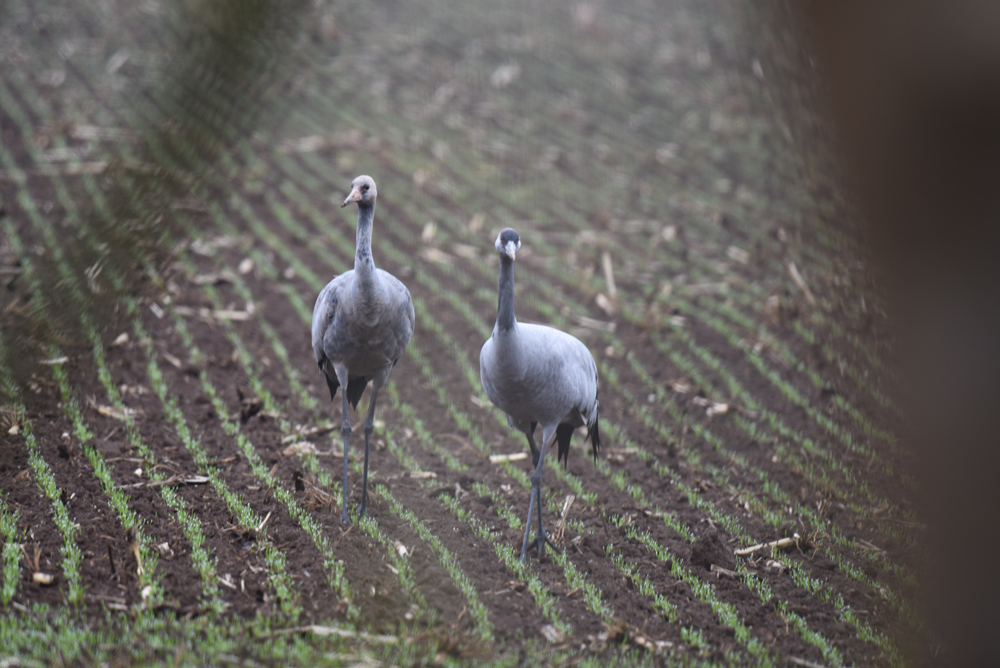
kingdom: Animalia
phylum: Chordata
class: Aves
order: Gruiformes
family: Gruidae
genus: Grus
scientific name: Grus grus
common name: Common crane
